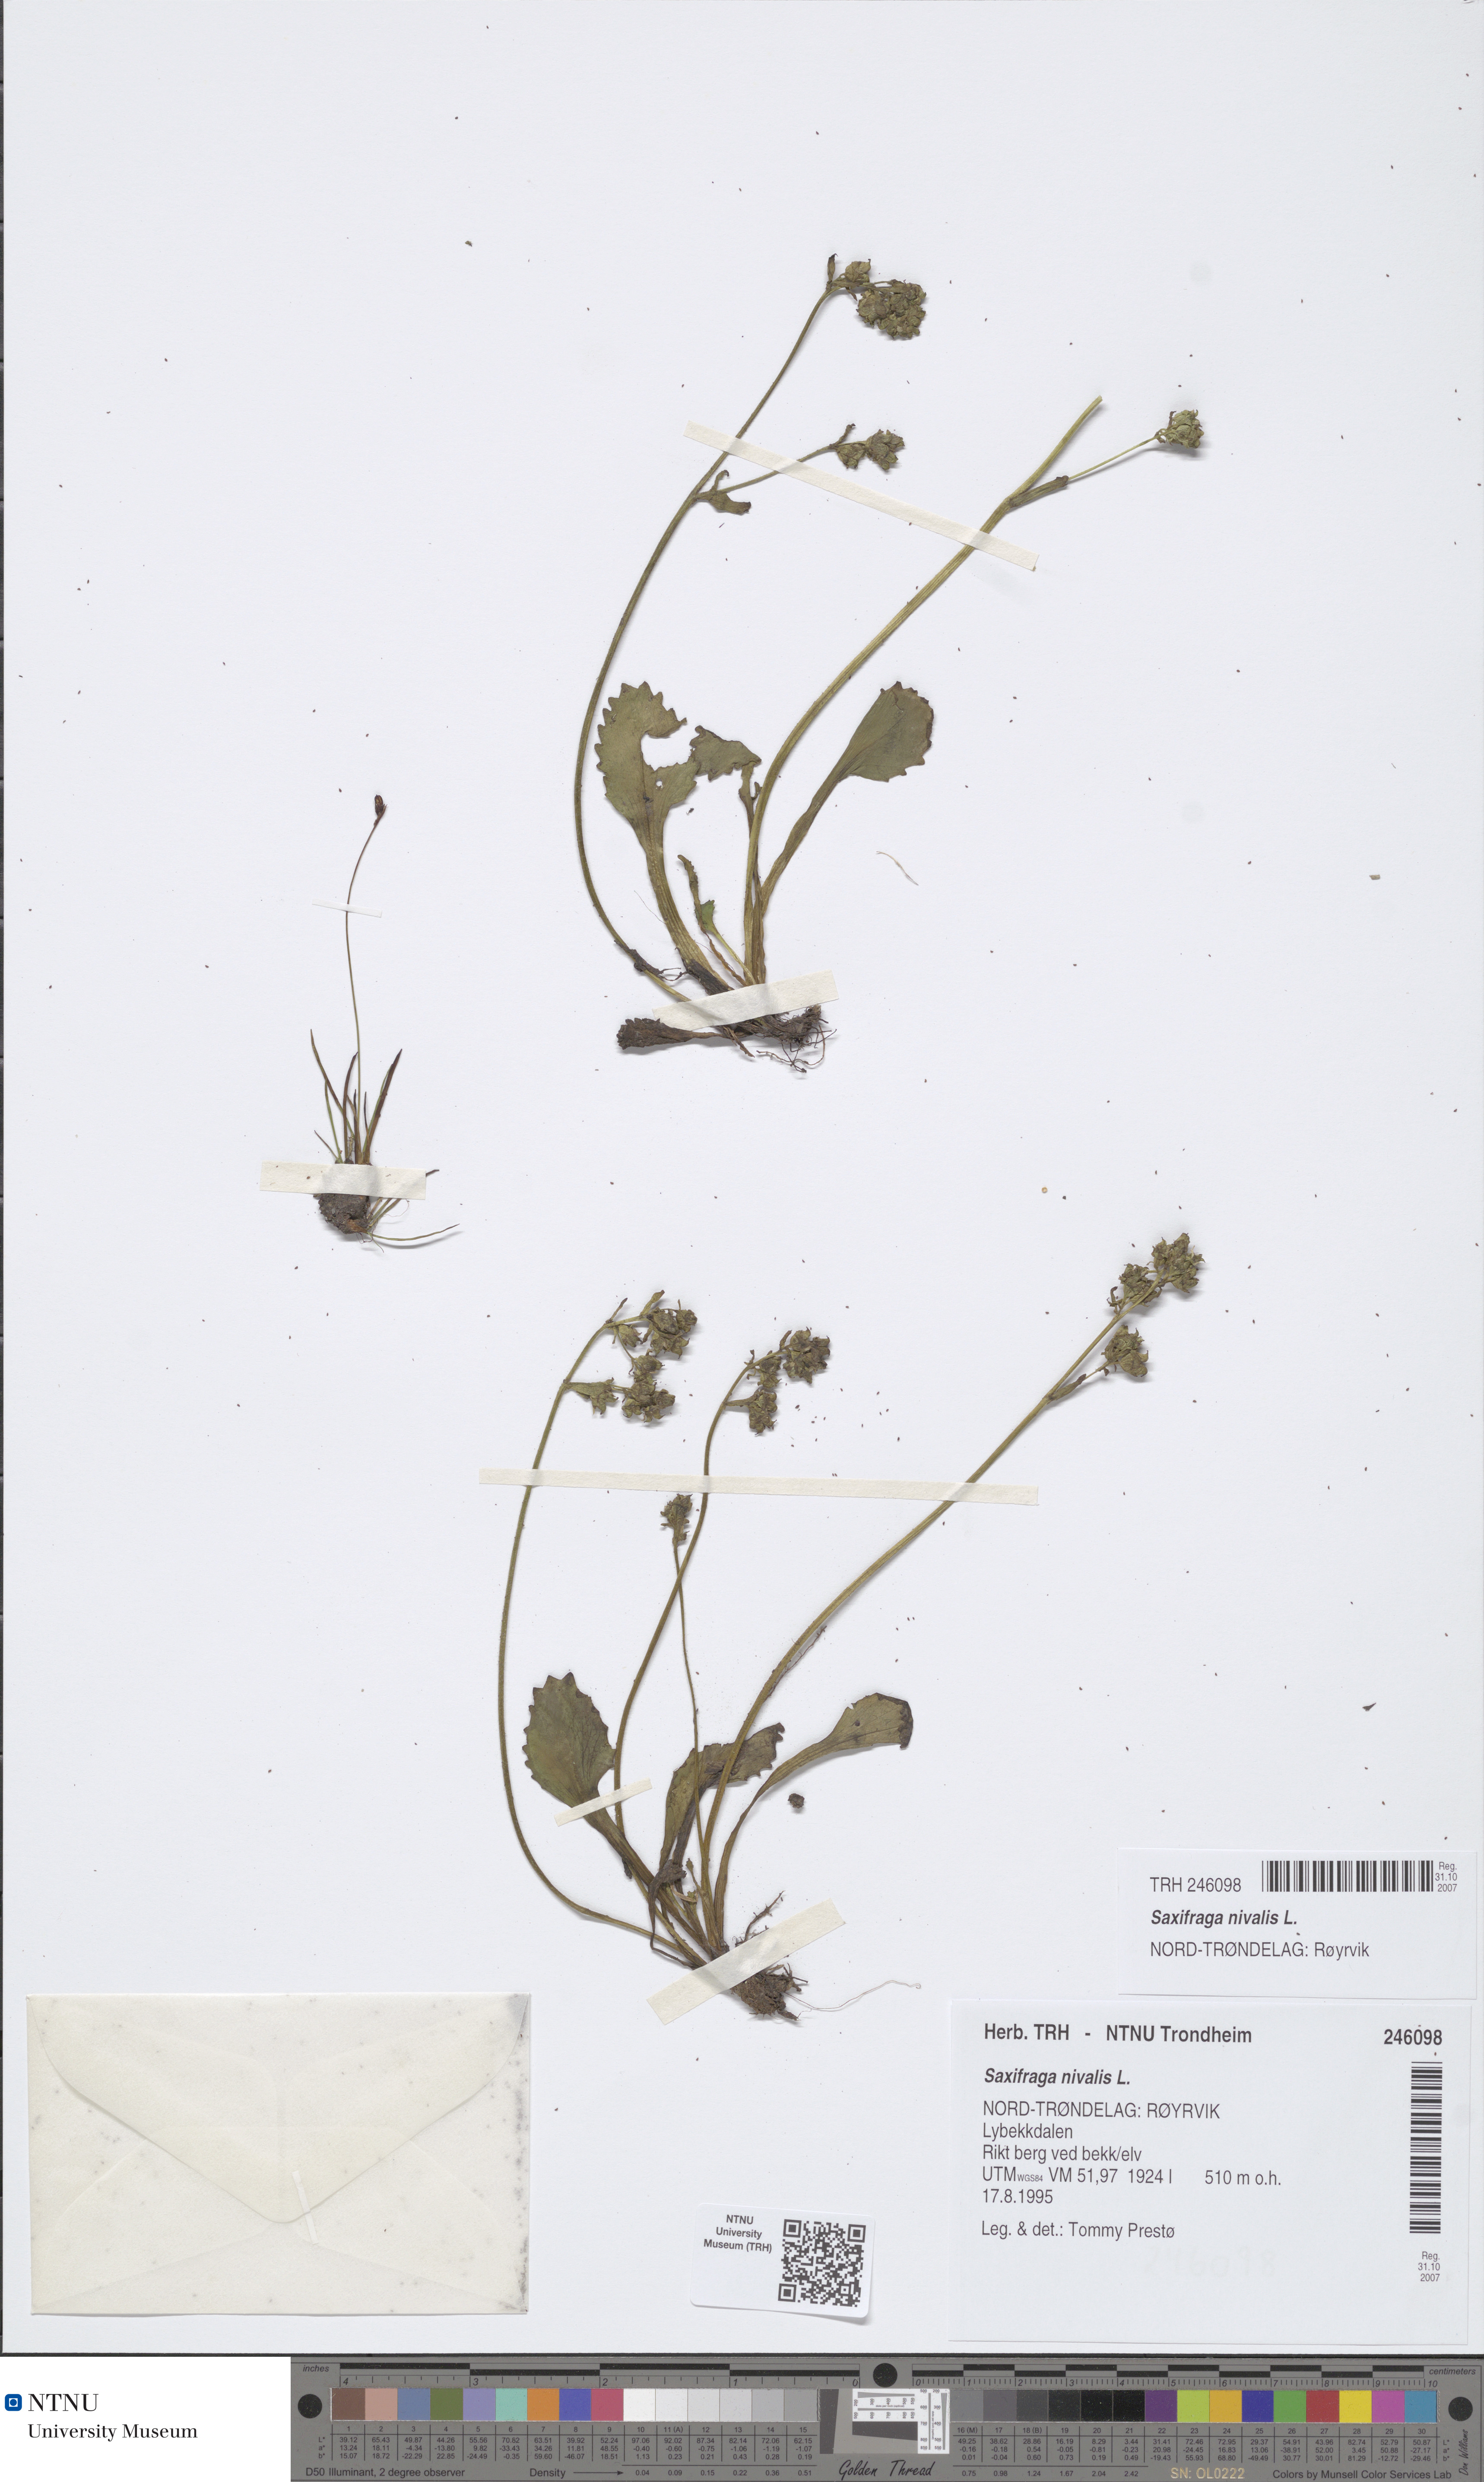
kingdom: Plantae
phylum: Tracheophyta
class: Magnoliopsida
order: Saxifragales
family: Saxifragaceae
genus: Micranthes
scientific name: Micranthes nivalis
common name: Alpine saxifrage
